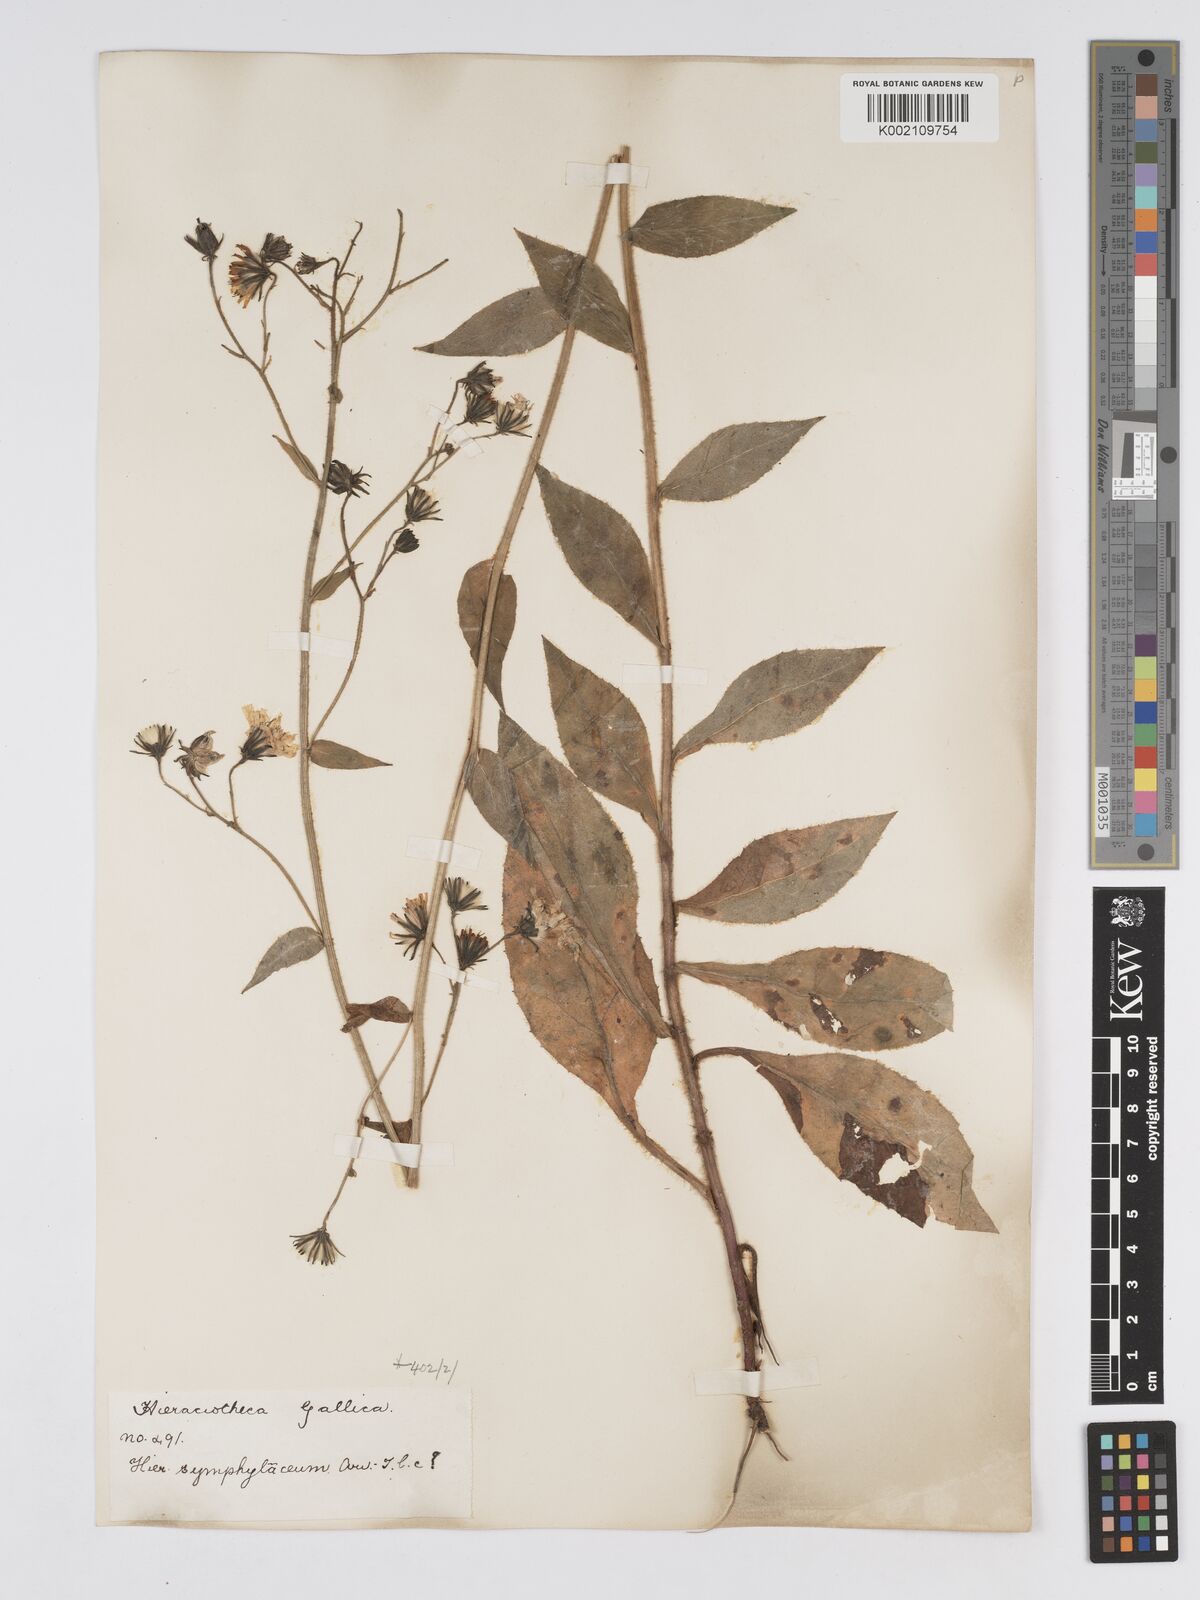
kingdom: Plantae
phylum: Tracheophyta
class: Magnoliopsida
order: Asterales
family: Asteraceae
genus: Hieracium
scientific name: Hieracium symphytaceum
